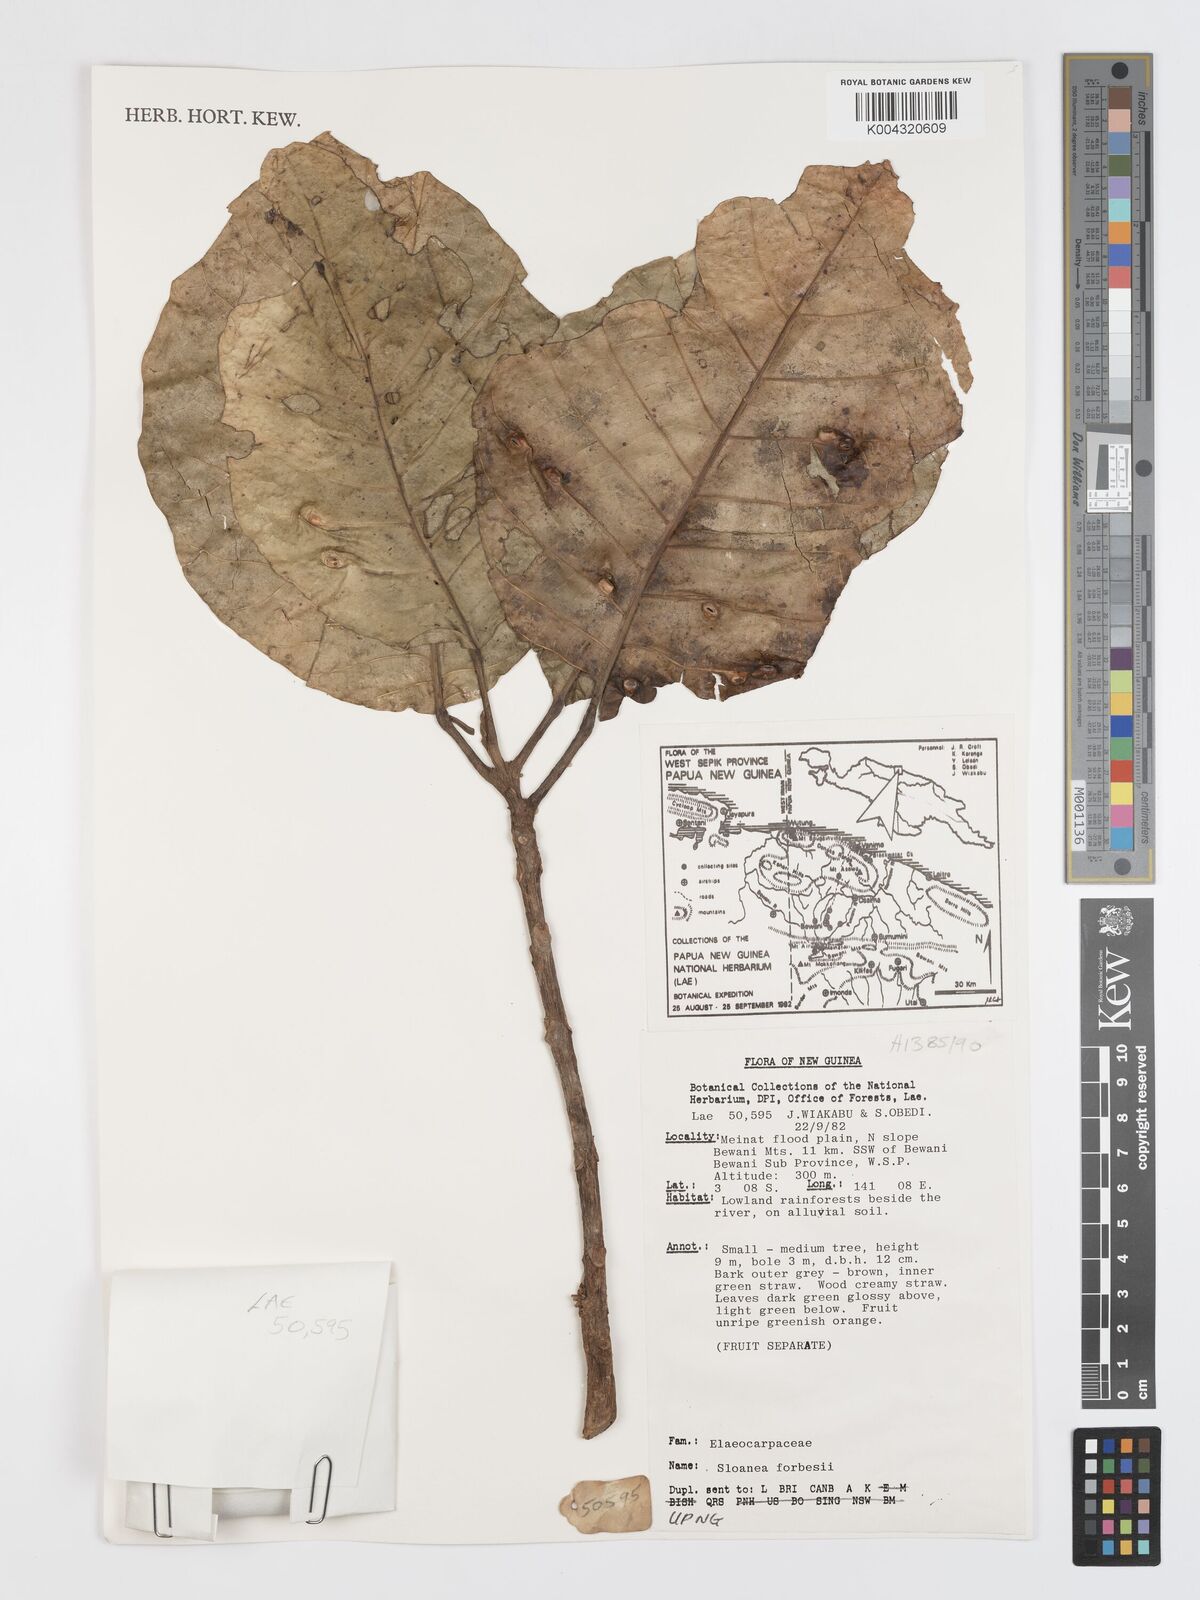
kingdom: Plantae
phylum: Tracheophyta
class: Magnoliopsida
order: Oxalidales
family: Elaeocarpaceae
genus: Sloanea
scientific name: Sloanea forbesii
